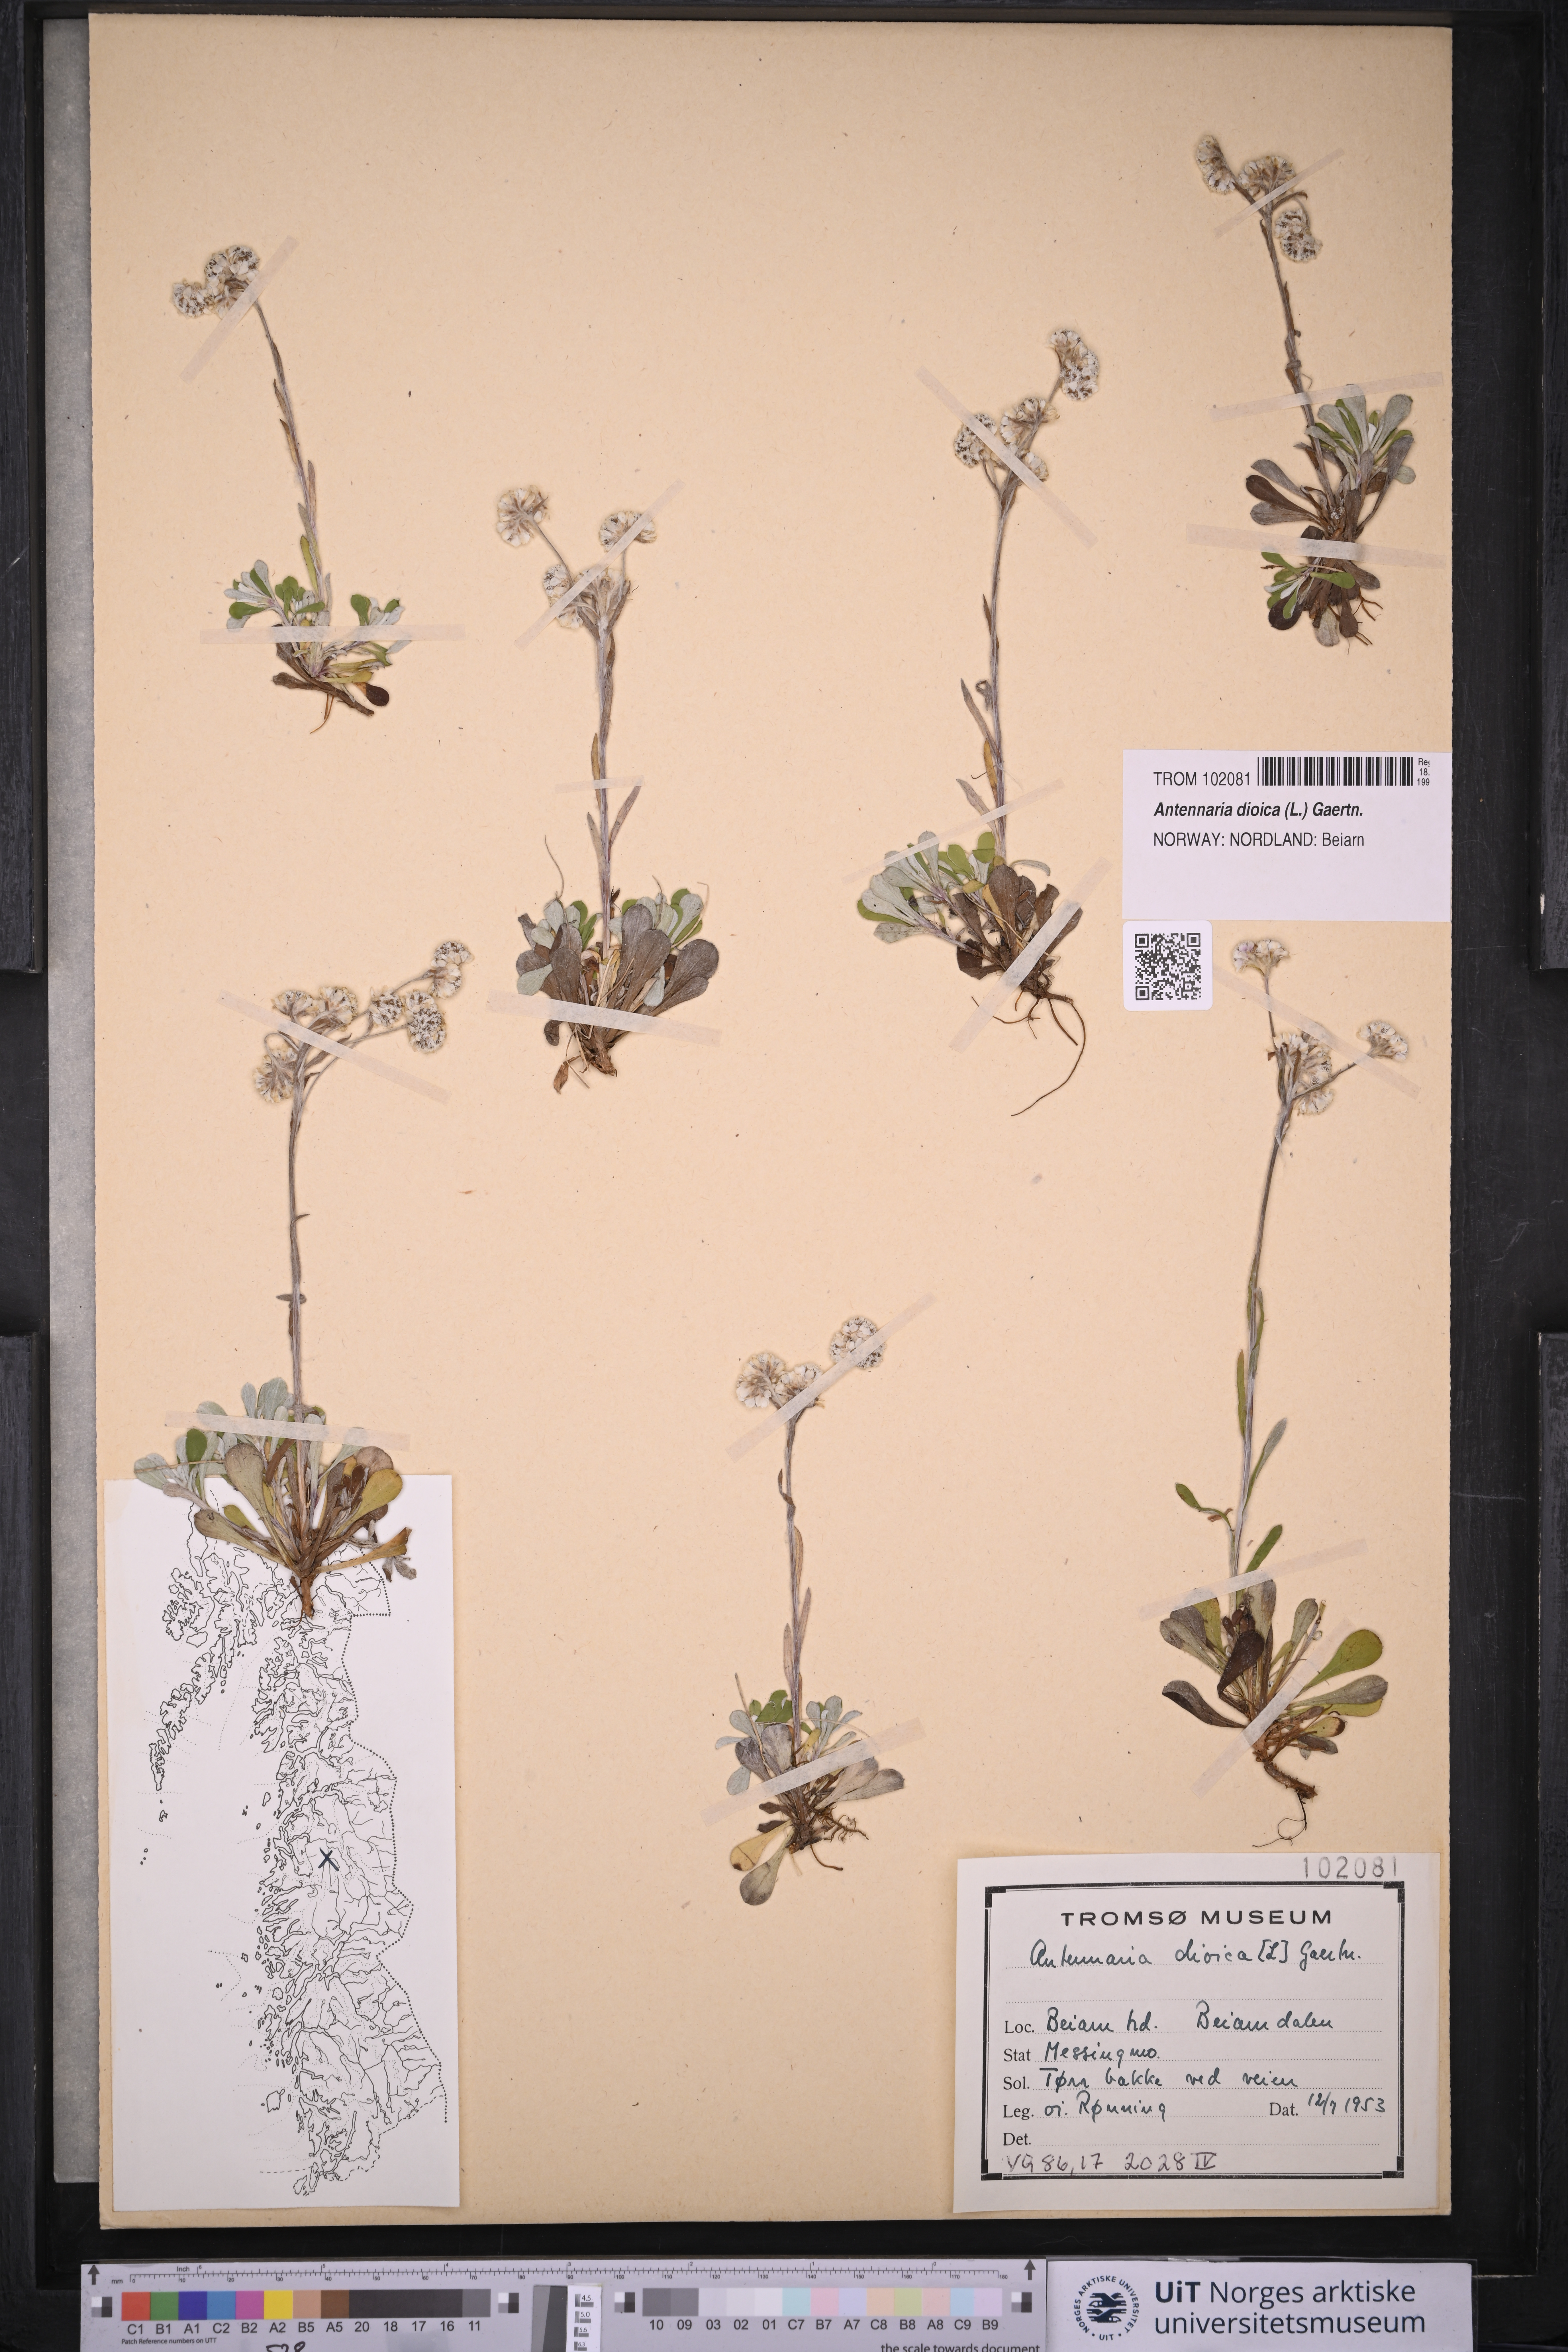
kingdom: Plantae
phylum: Tracheophyta
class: Magnoliopsida
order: Asterales
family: Asteraceae
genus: Antennaria
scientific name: Antennaria dioica
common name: Mountain everlasting
